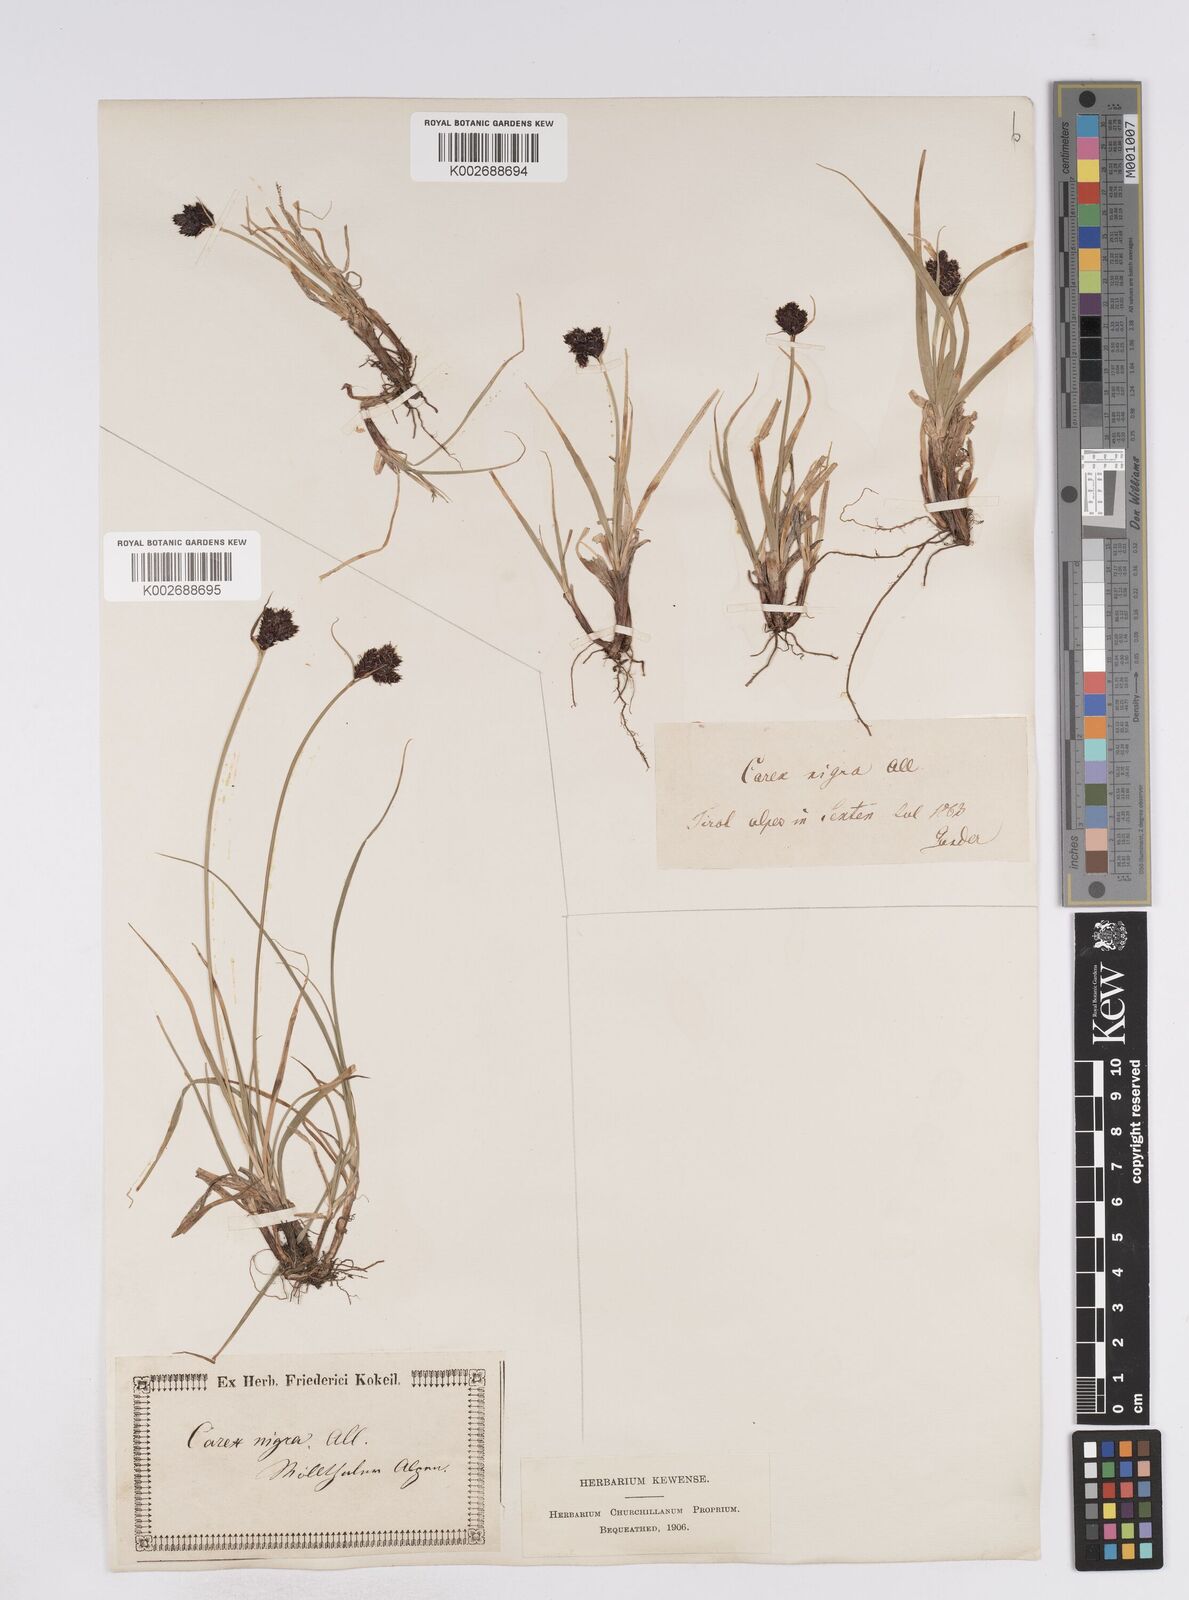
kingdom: Plantae
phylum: Tracheophyta
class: Liliopsida
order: Poales
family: Cyperaceae
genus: Carex
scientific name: Carex parviflora
